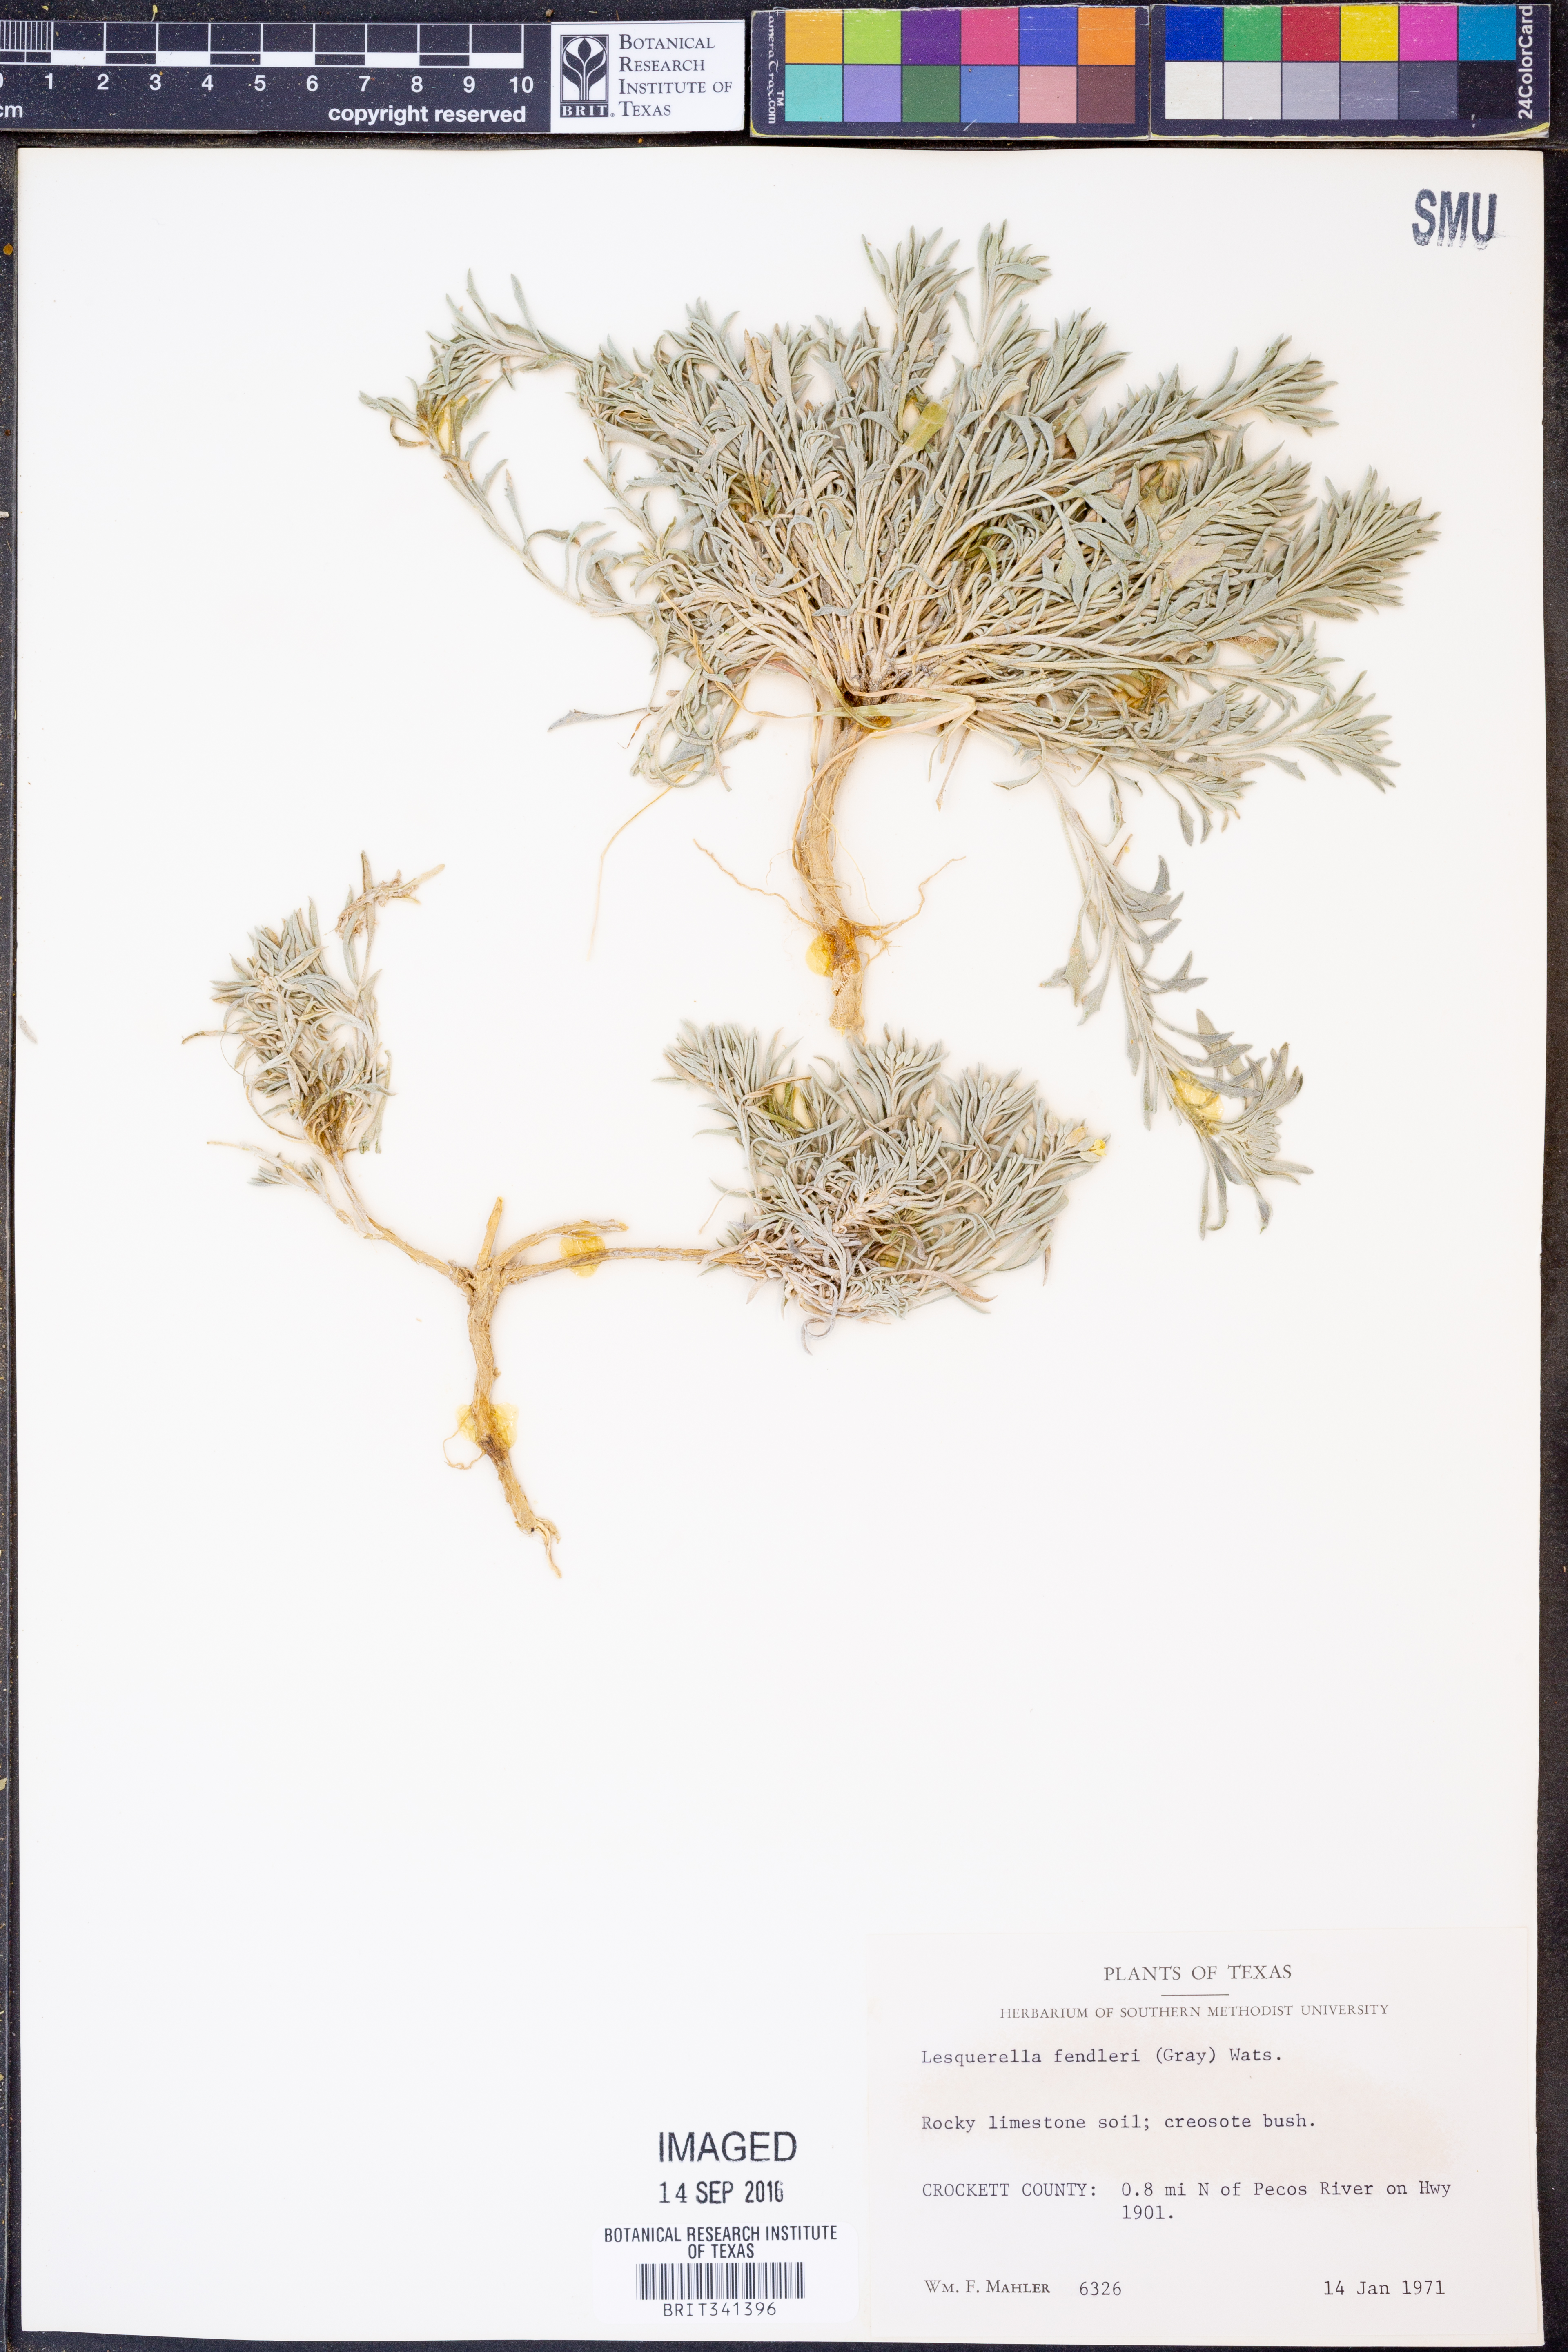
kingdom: Plantae
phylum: Tracheophyta
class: Magnoliopsida
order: Brassicales
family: Brassicaceae
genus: Physaria
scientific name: Physaria fendleri
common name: Fendler's bladderpod
